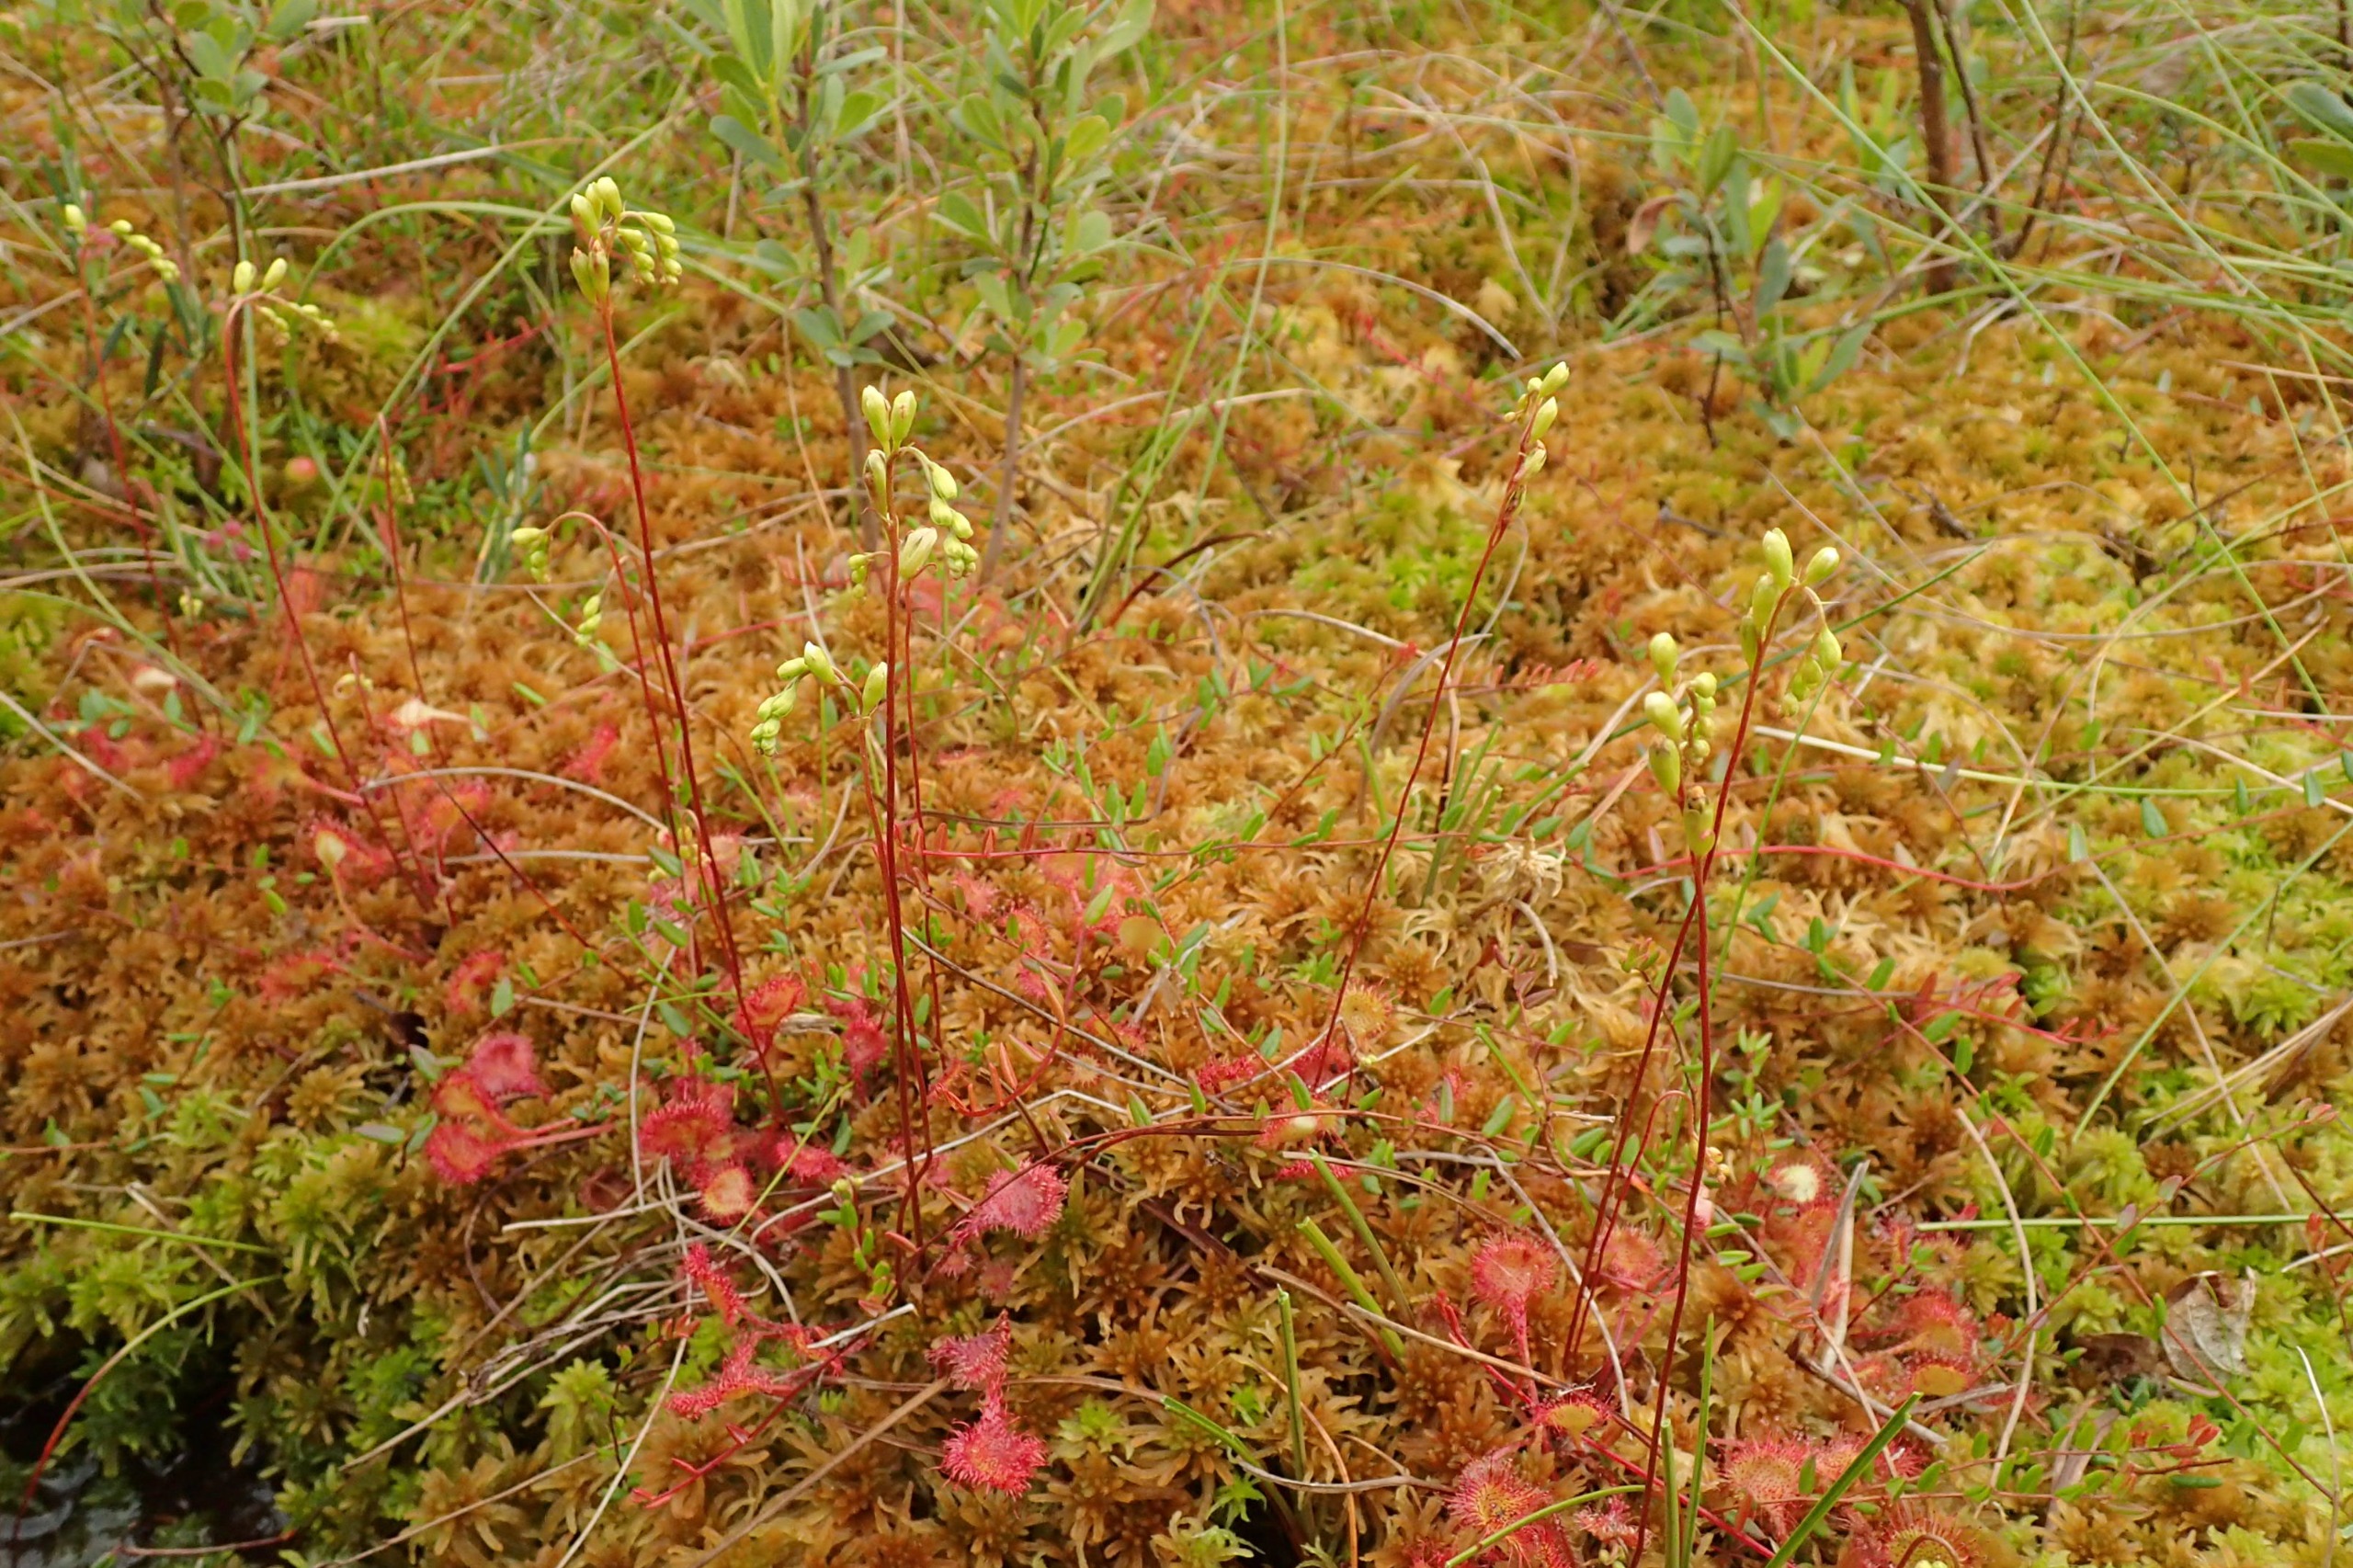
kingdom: Plantae
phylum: Tracheophyta
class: Magnoliopsida
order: Caryophyllales
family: Droseraceae
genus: Drosera
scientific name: Drosera rotundifolia
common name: Rundbladet soldug
